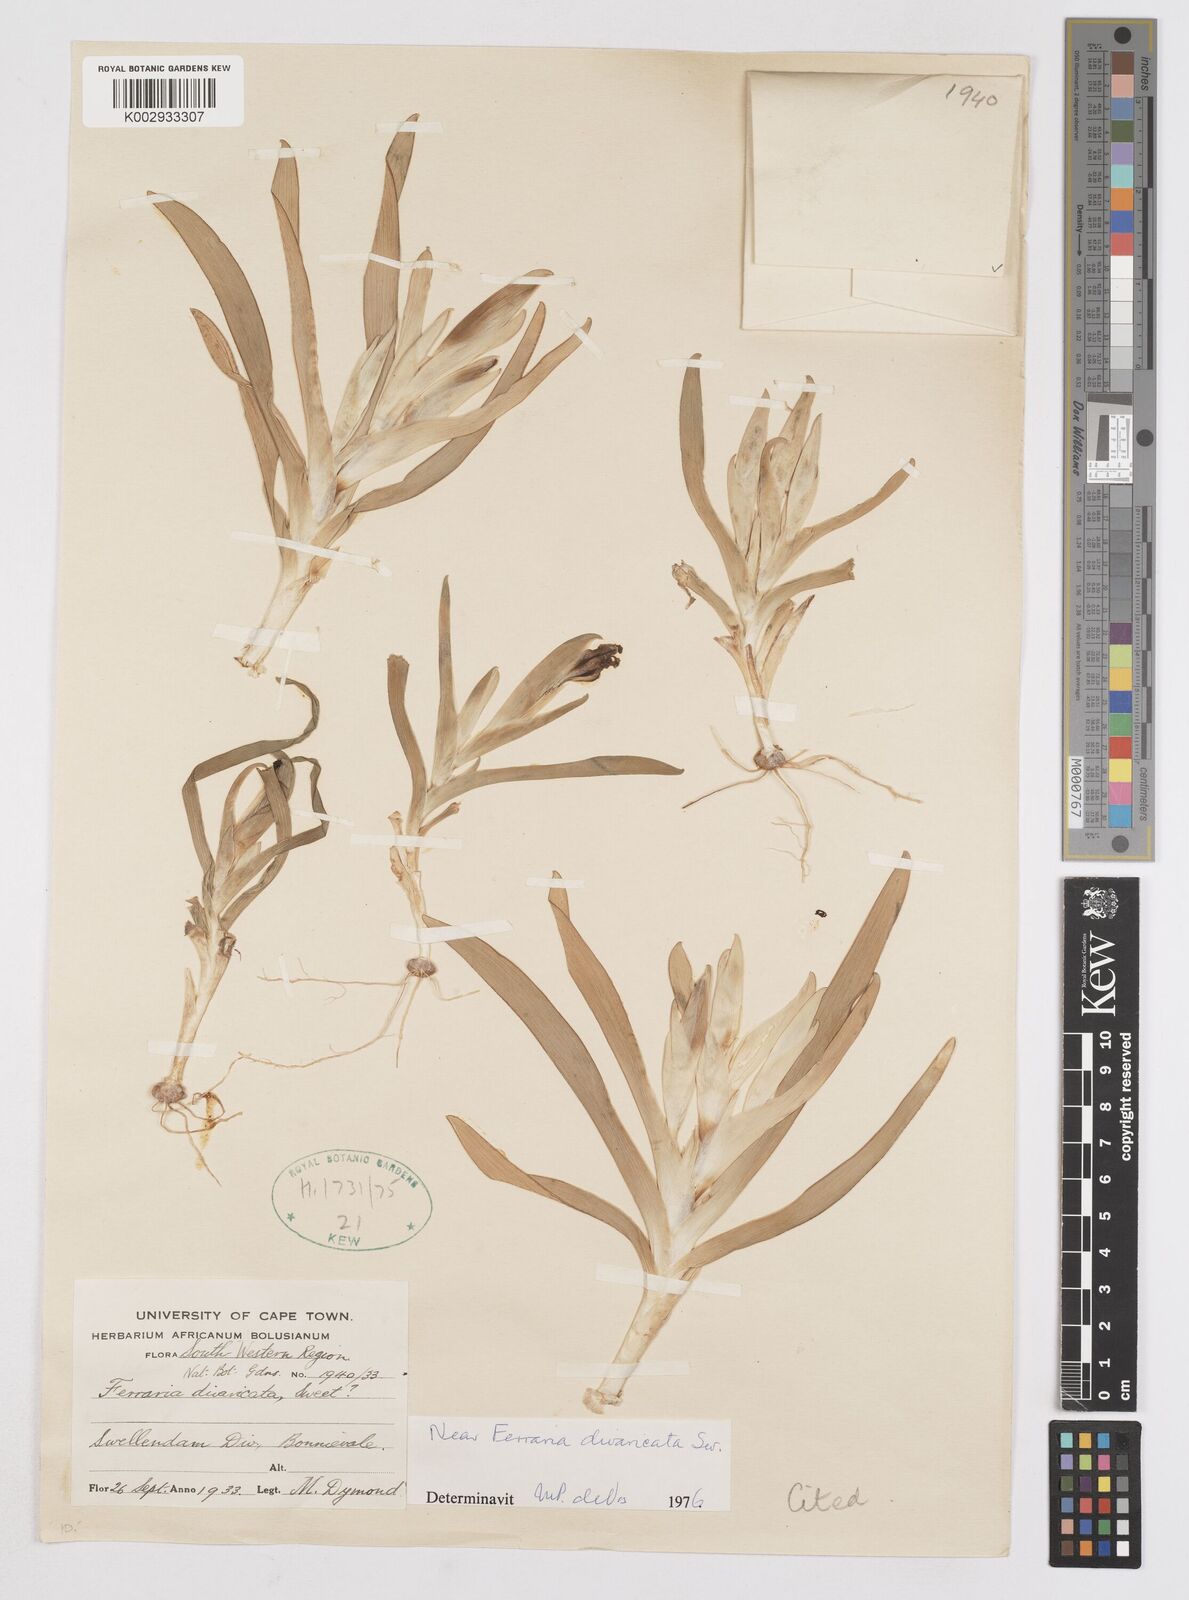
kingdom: Plantae
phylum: Tracheophyta
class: Liliopsida
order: Asparagales
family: Iridaceae
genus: Ferraria
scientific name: Ferraria divaricata
